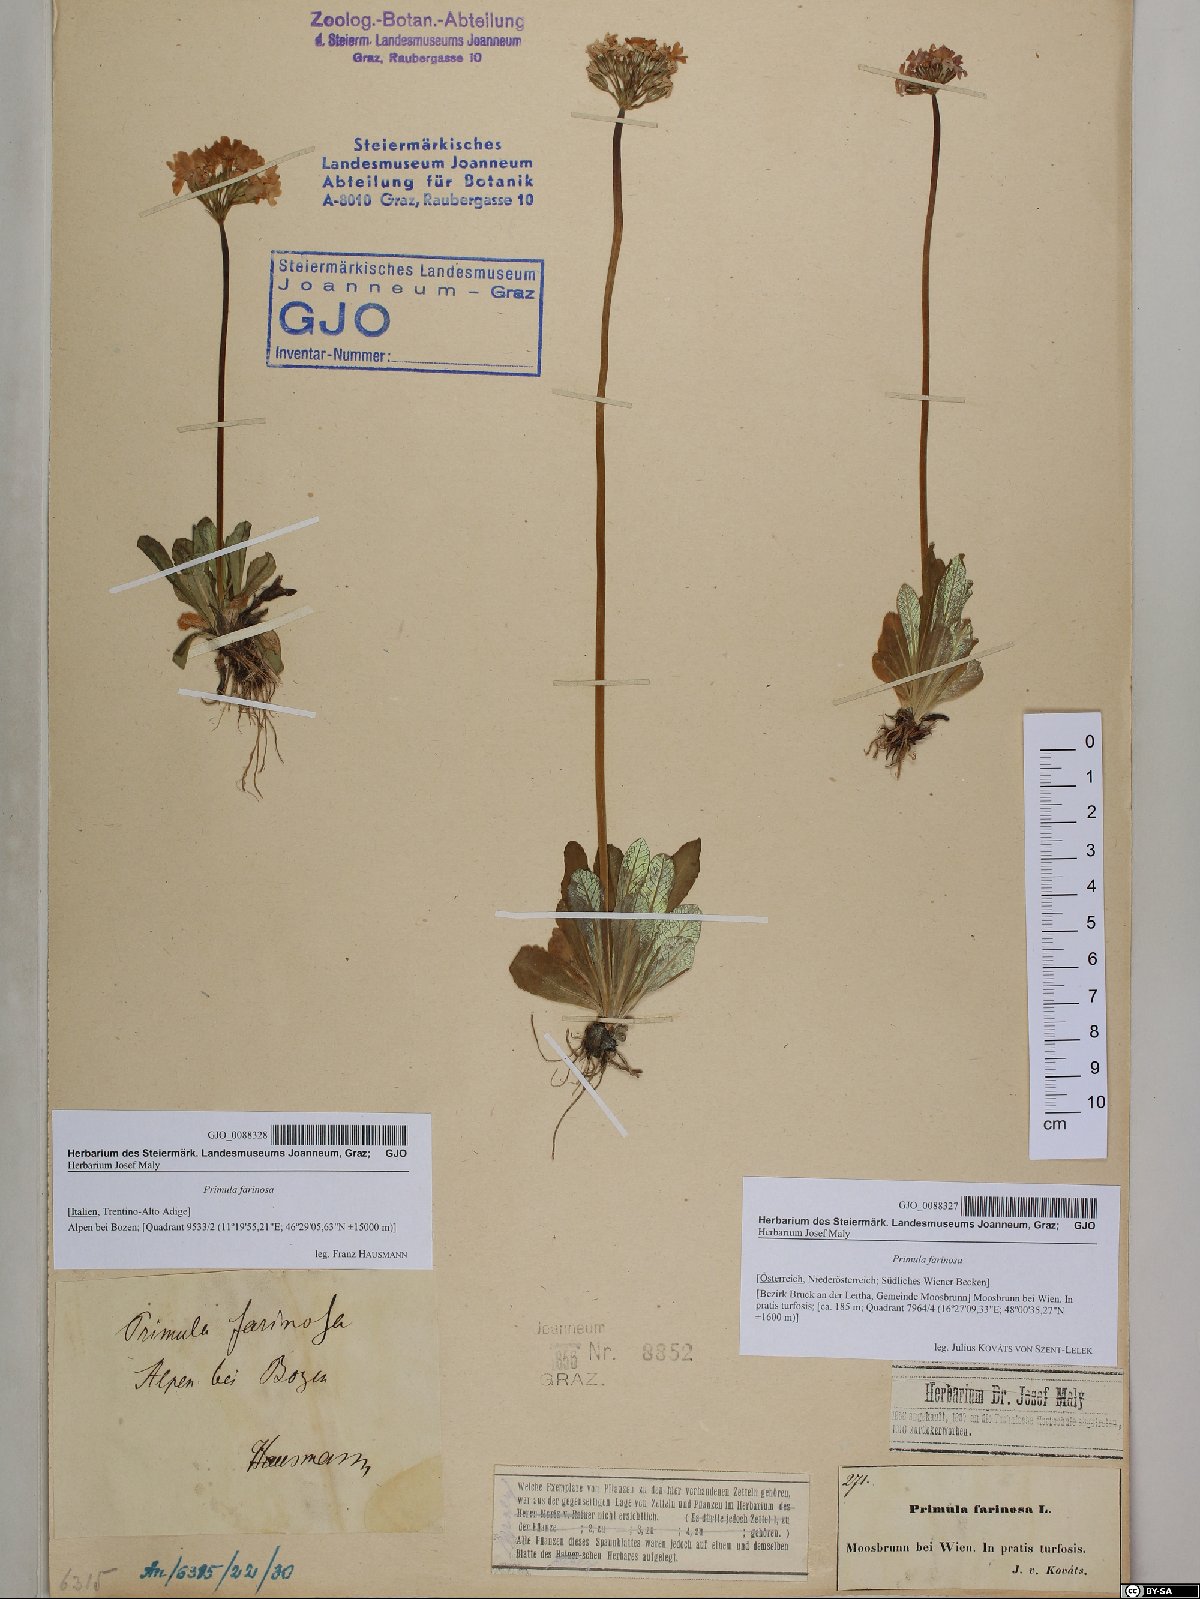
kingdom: Plantae
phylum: Tracheophyta
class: Magnoliopsida
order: Ericales
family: Primulaceae
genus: Primula
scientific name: Primula farinosa
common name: Bird's-eye primrose
